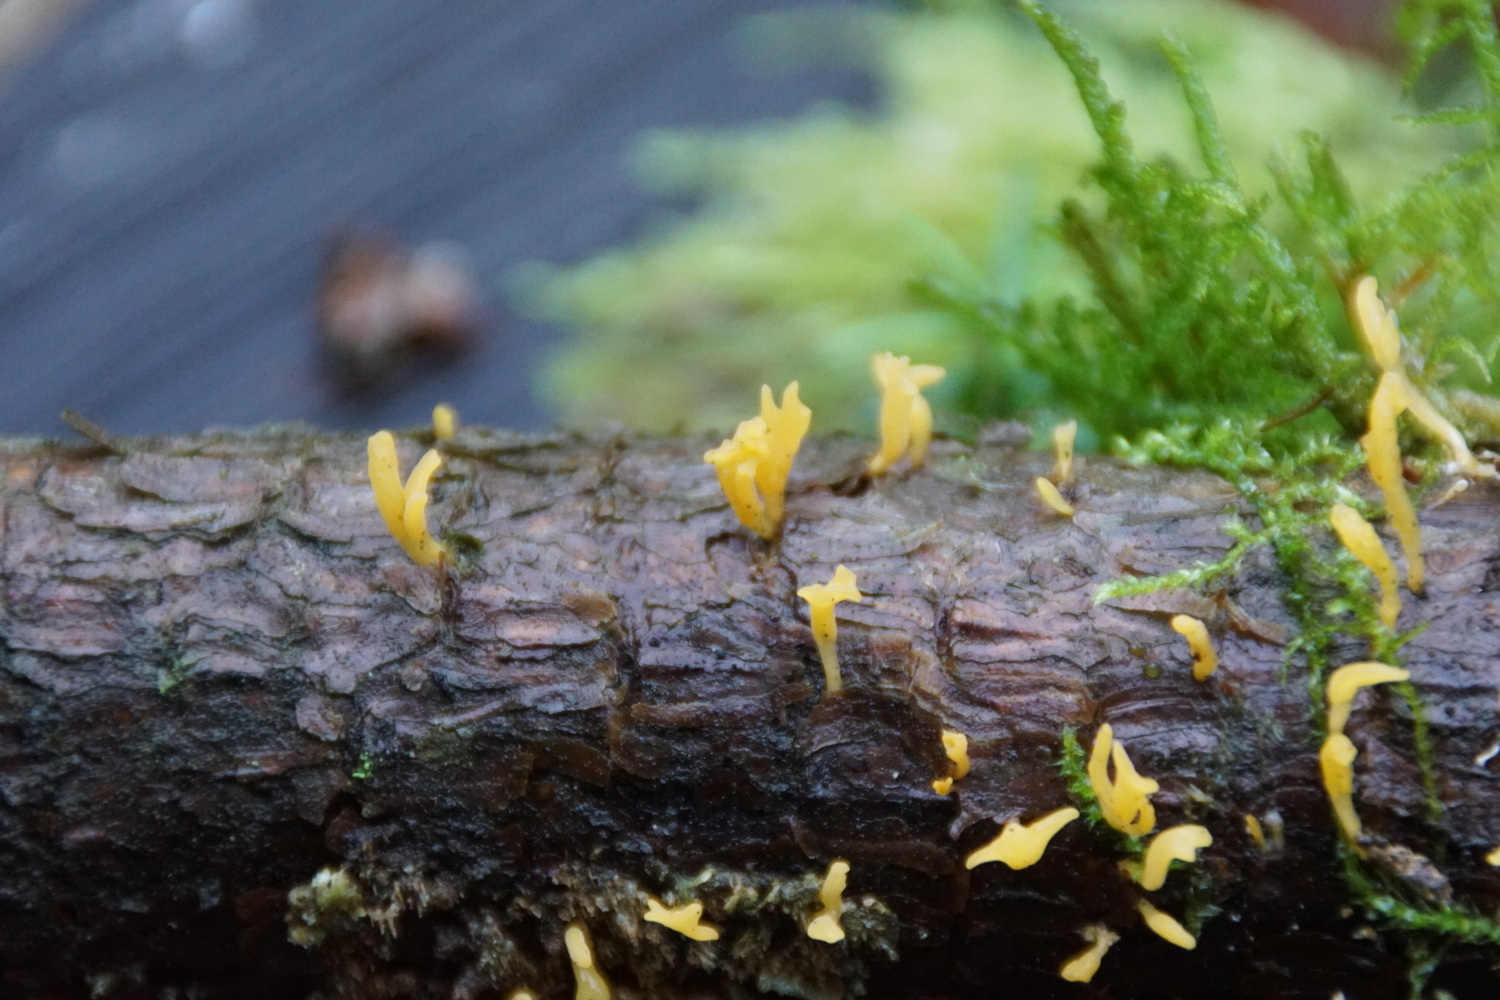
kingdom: Fungi
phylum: Basidiomycota
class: Dacrymycetes
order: Dacrymycetales
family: Dacrymycetaceae
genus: Calocera
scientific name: Calocera furcata
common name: fyrre-guldgaffel
